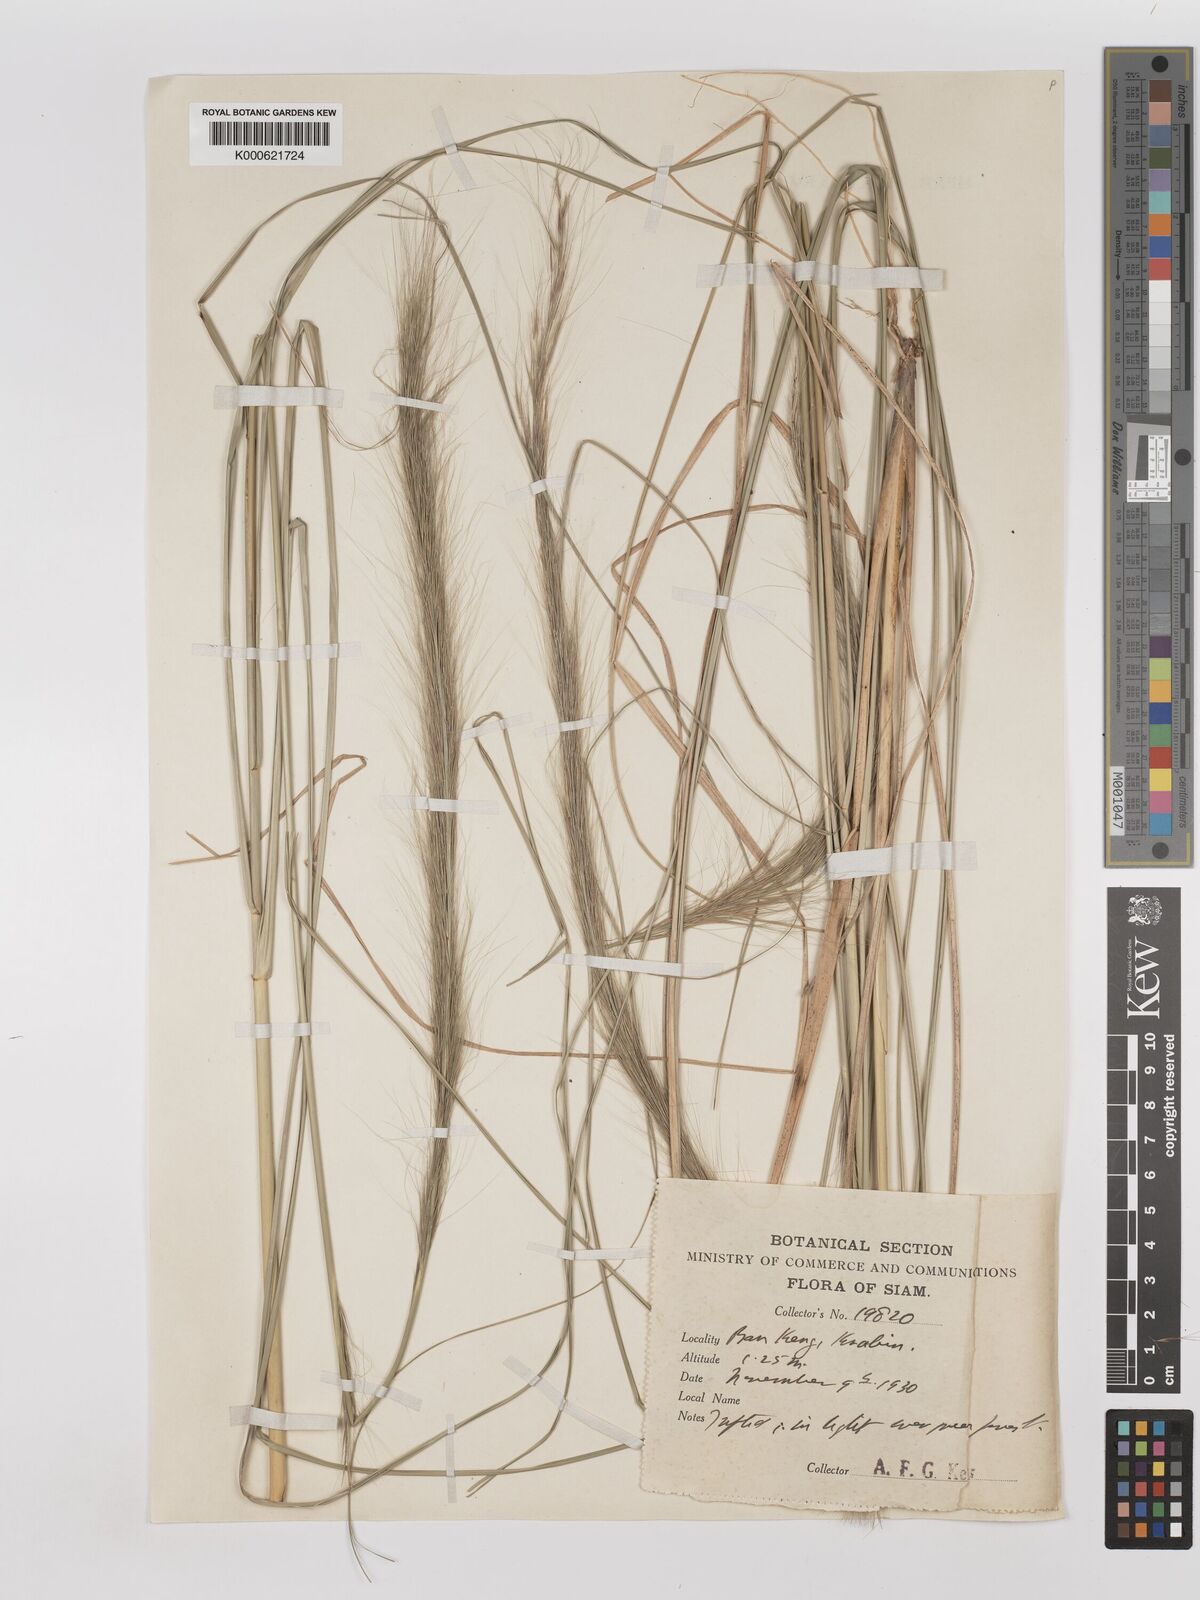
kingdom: Plantae
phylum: Tracheophyta
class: Liliopsida
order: Poales
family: Poaceae
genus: Aristida
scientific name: Aristida balansae
